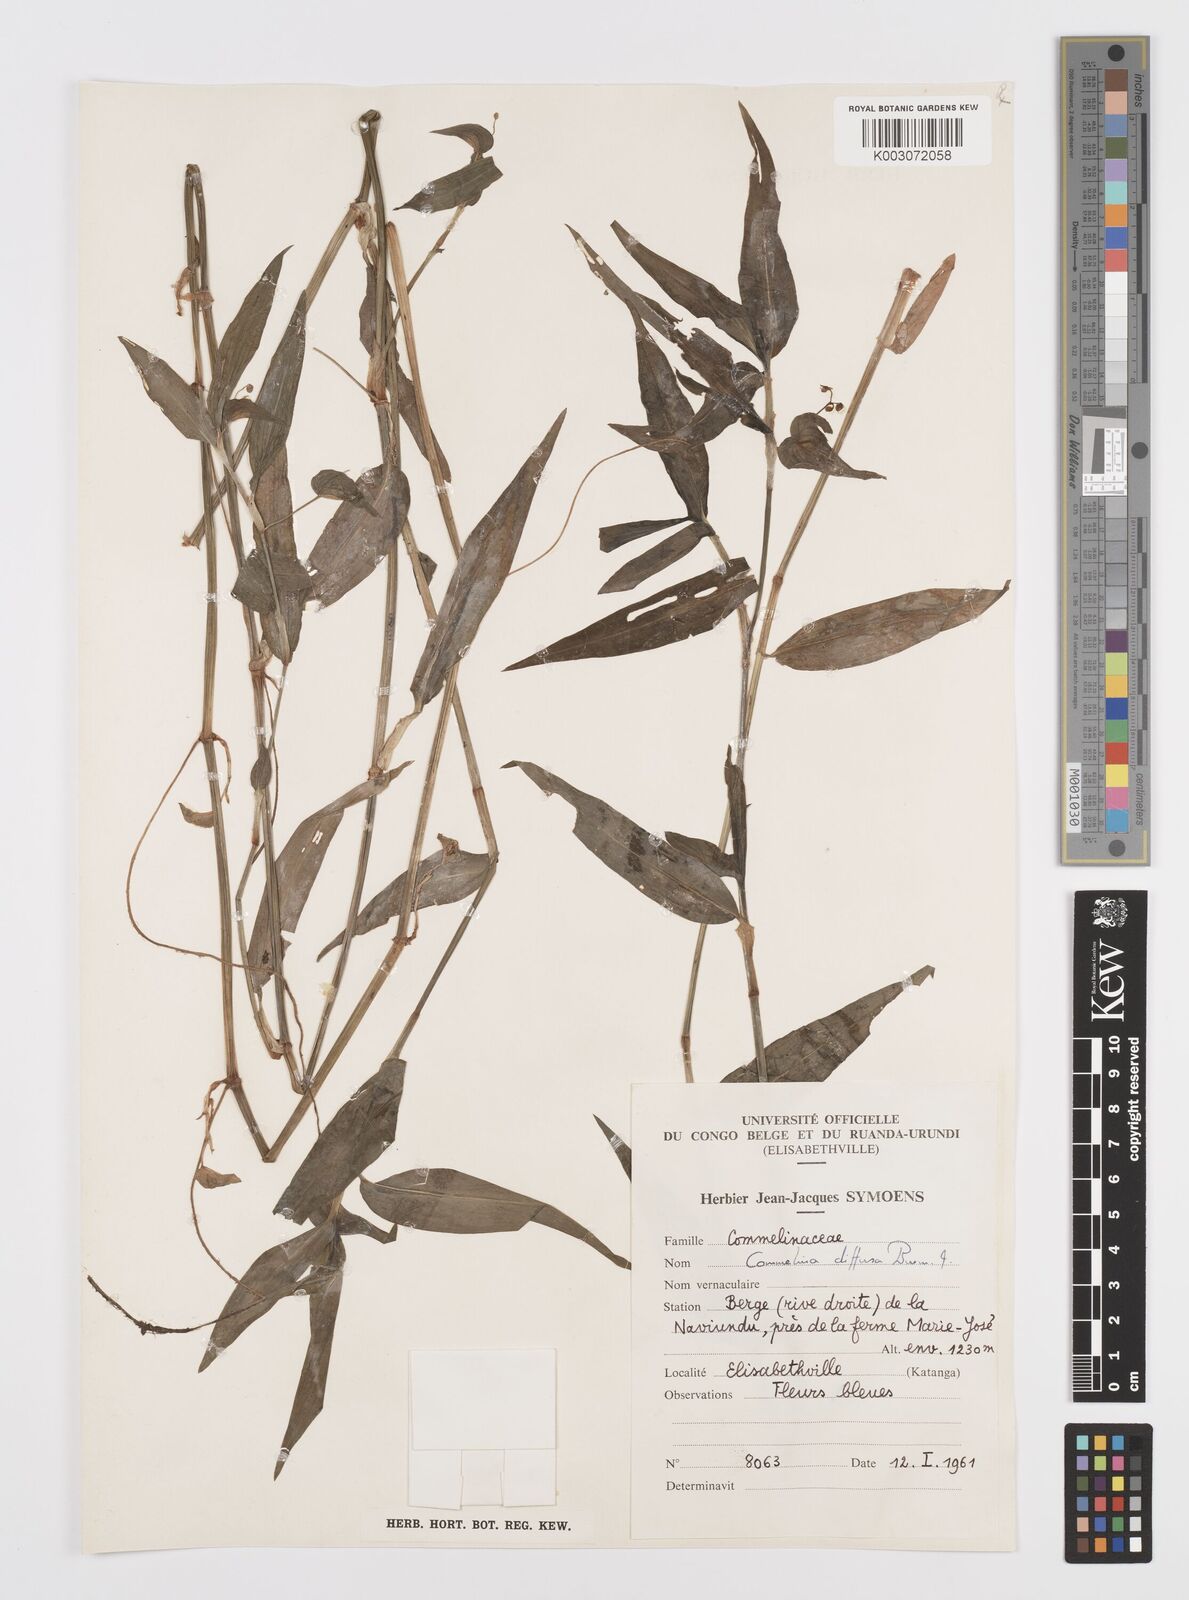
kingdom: Plantae
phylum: Tracheophyta
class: Liliopsida
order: Commelinales
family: Commelinaceae
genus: Commelina
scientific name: Commelina diffusa
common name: Climbing dayflower
